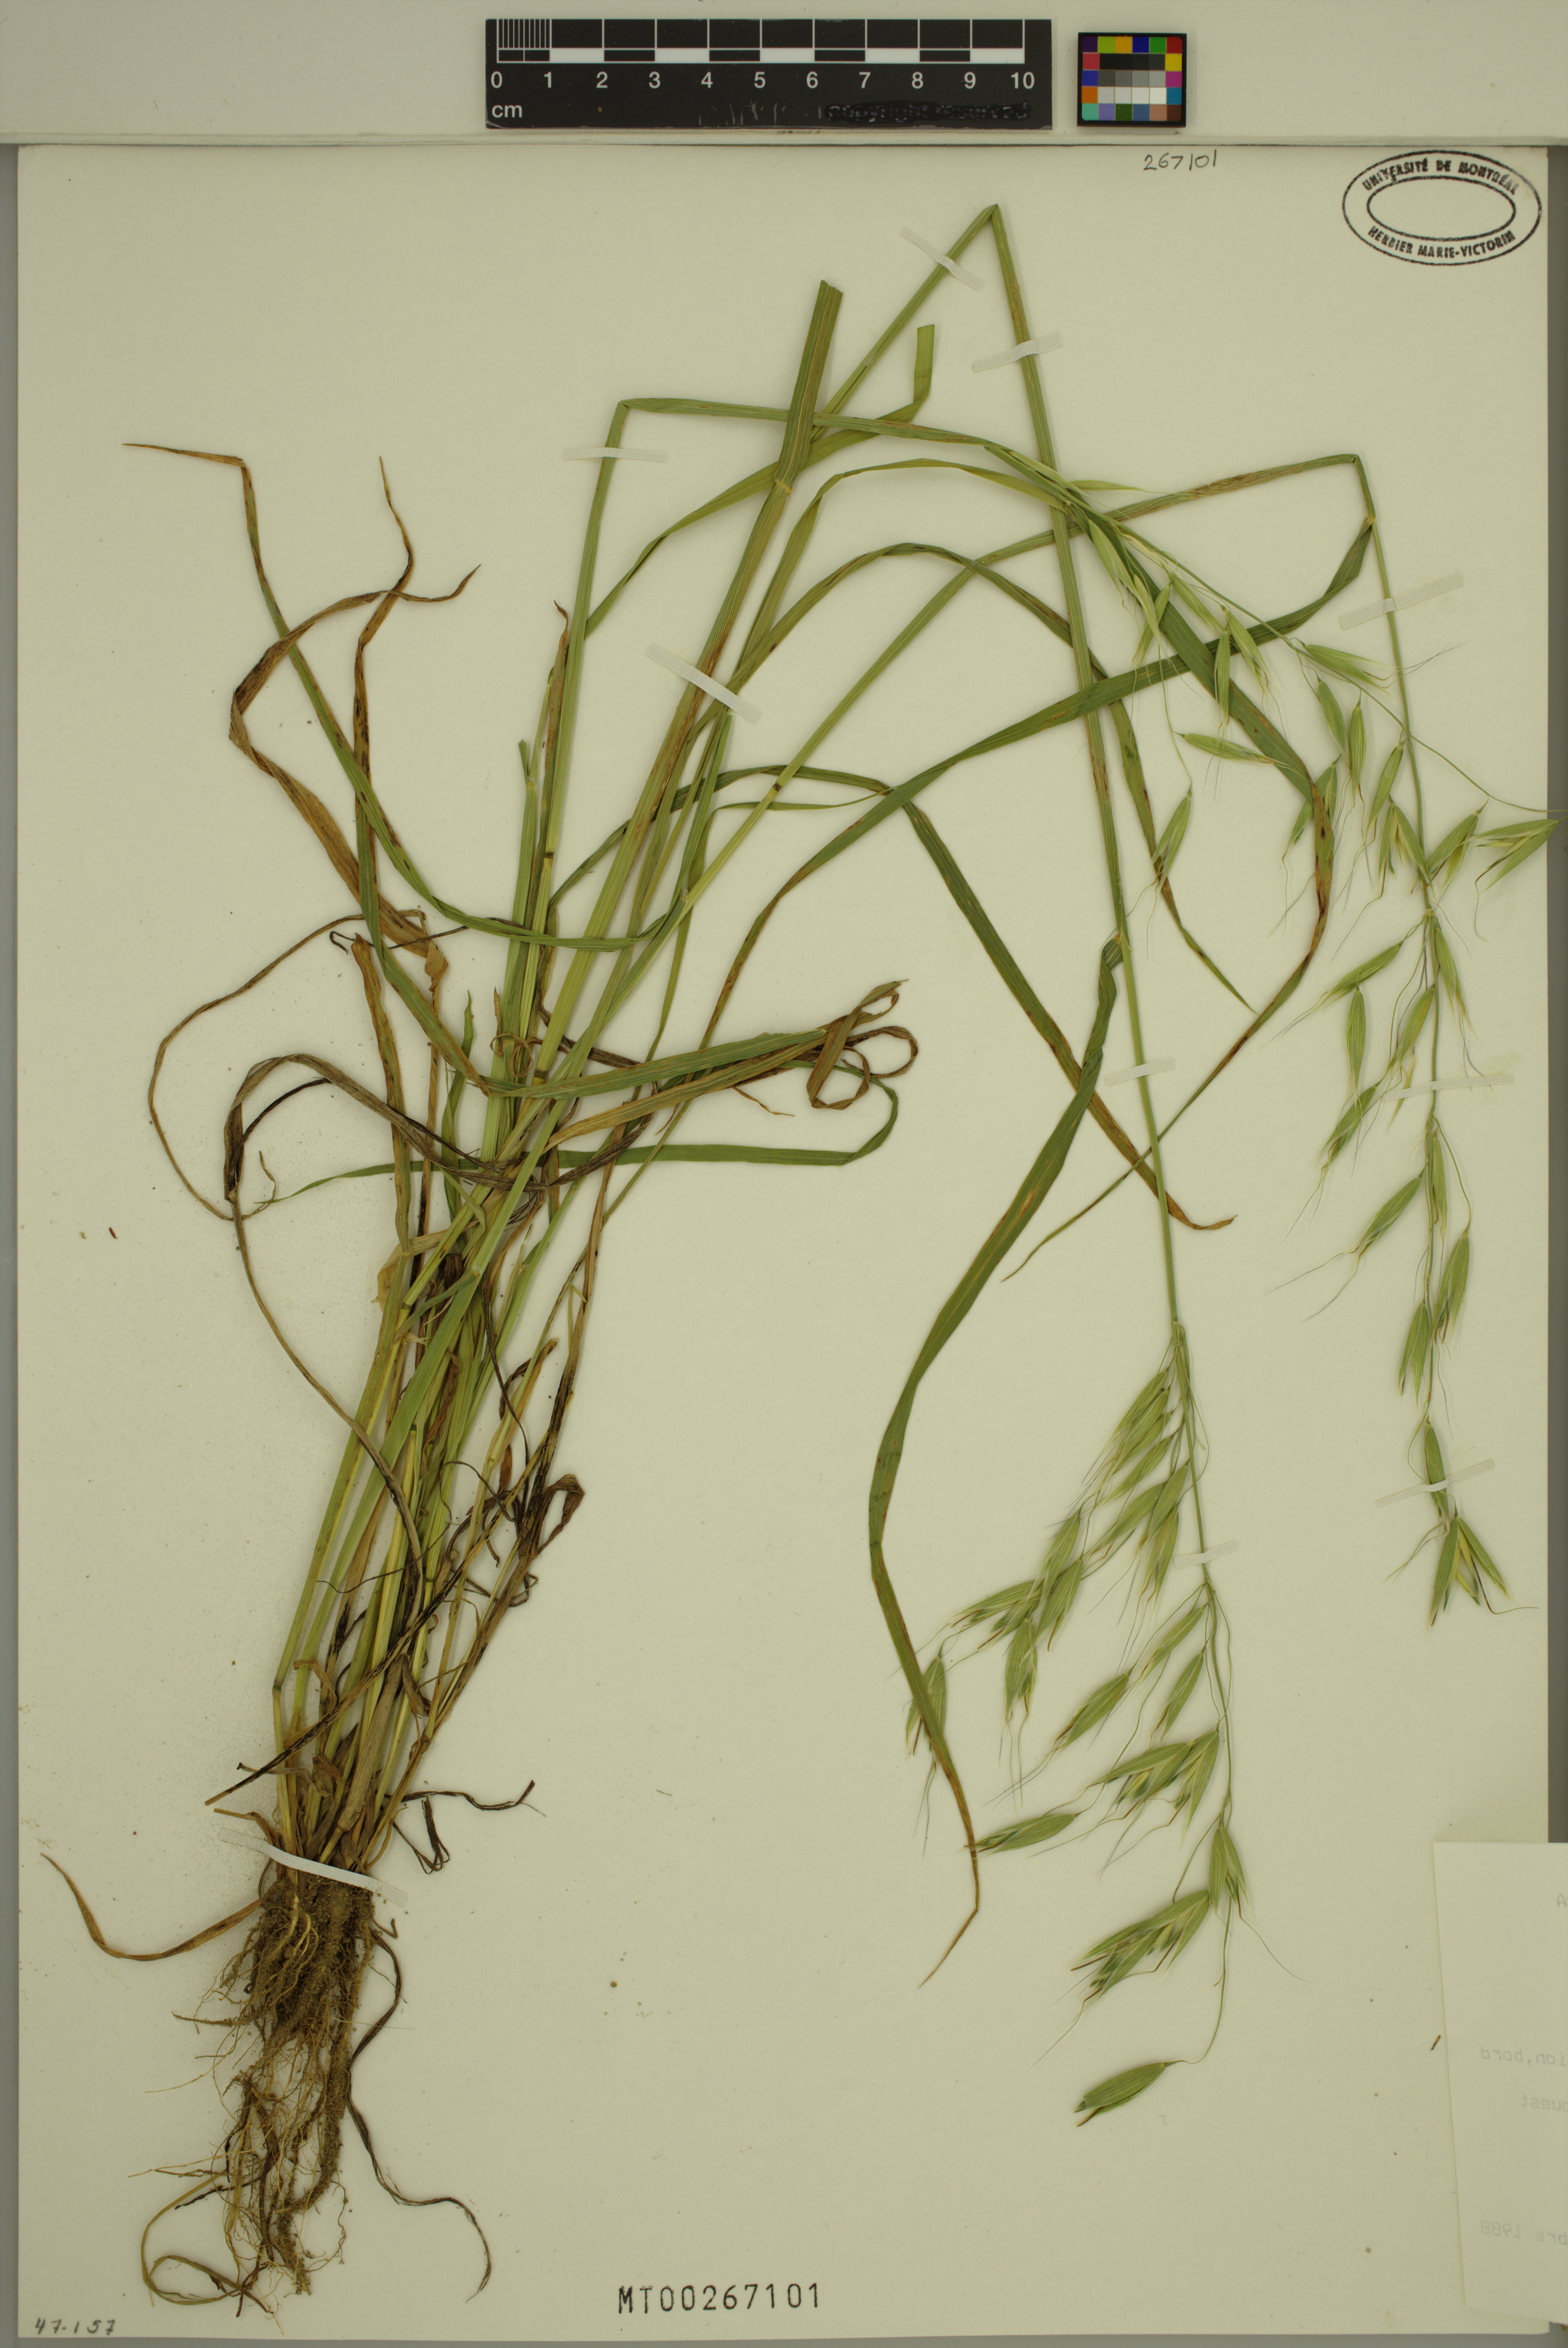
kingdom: Plantae
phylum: Tracheophyta
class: Liliopsida
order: Poales
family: Poaceae
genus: Avena
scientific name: Avena fatua
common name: Wild oat
